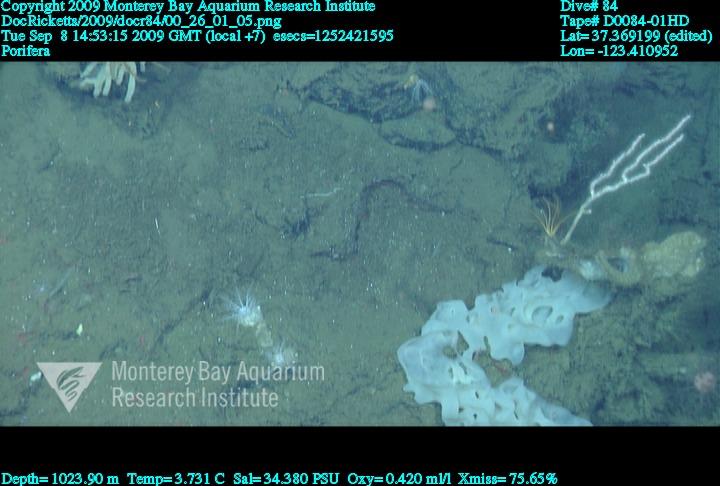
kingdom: Animalia
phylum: Porifera
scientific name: Porifera
